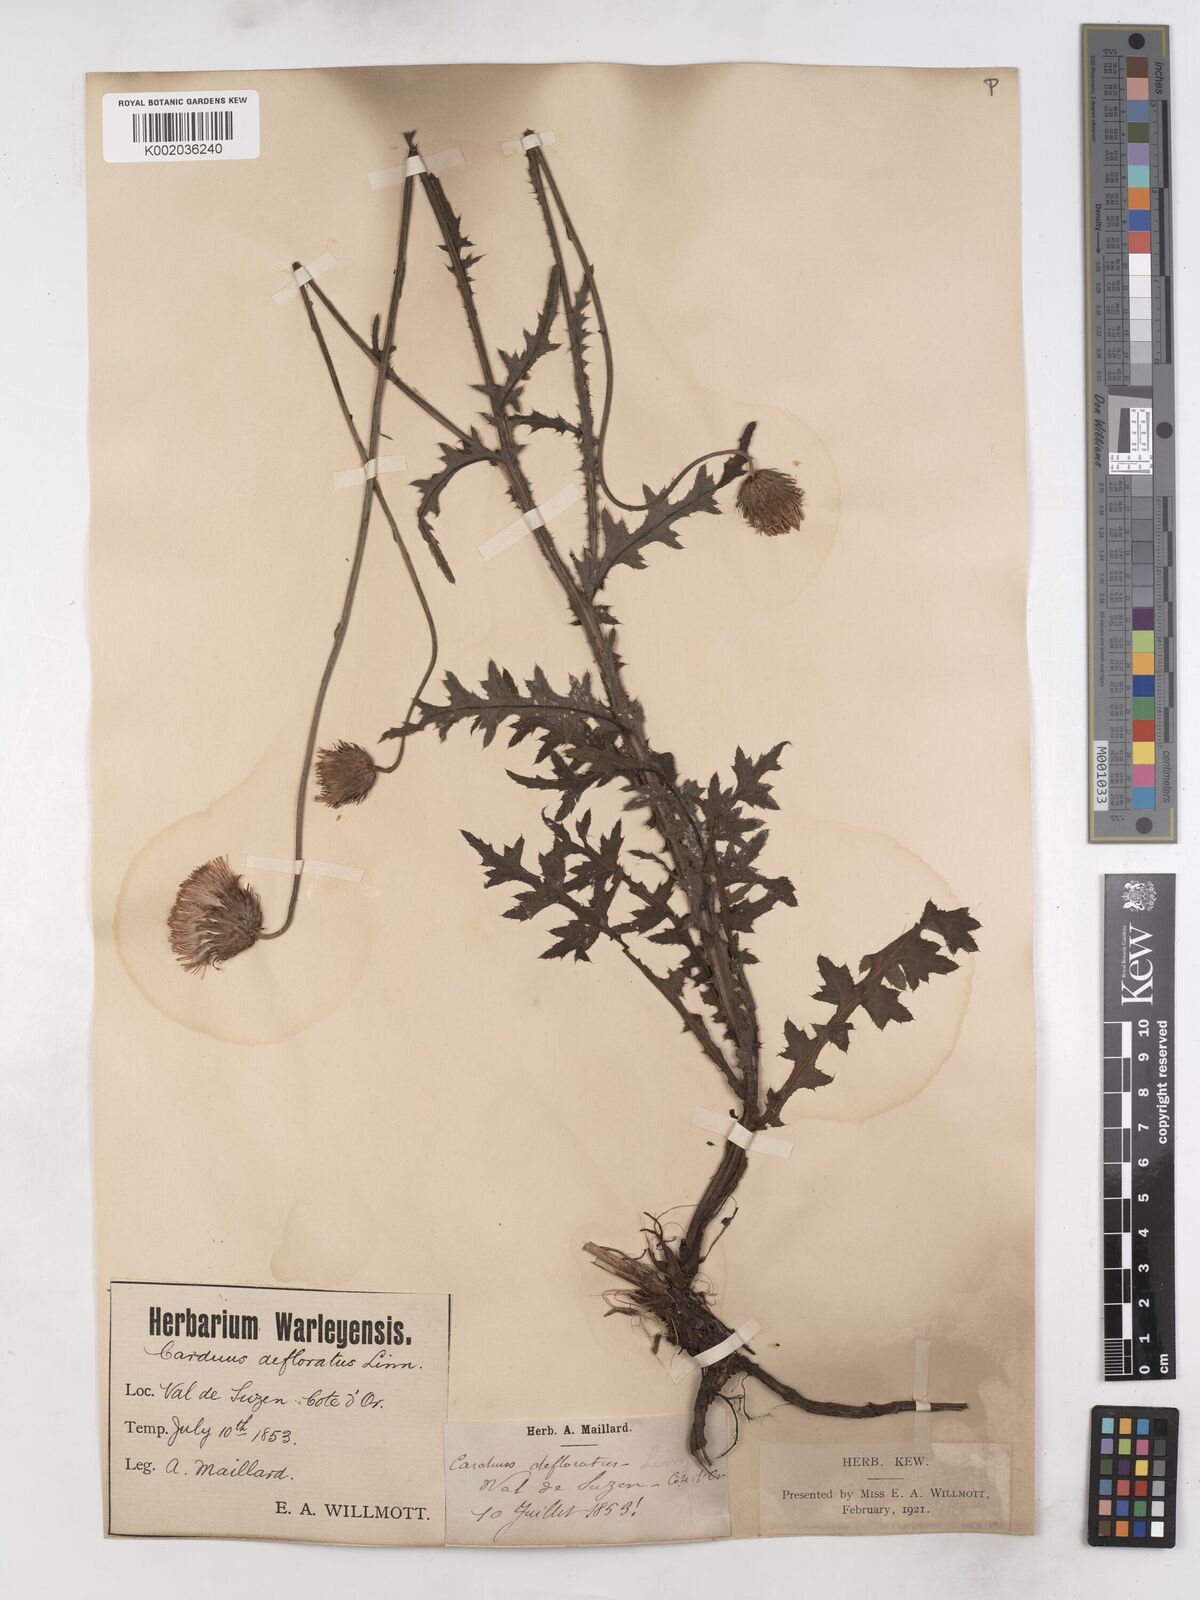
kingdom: Plantae
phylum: Tracheophyta
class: Magnoliopsida
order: Asterales
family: Asteraceae
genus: Carduus
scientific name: Carduus defloratus
